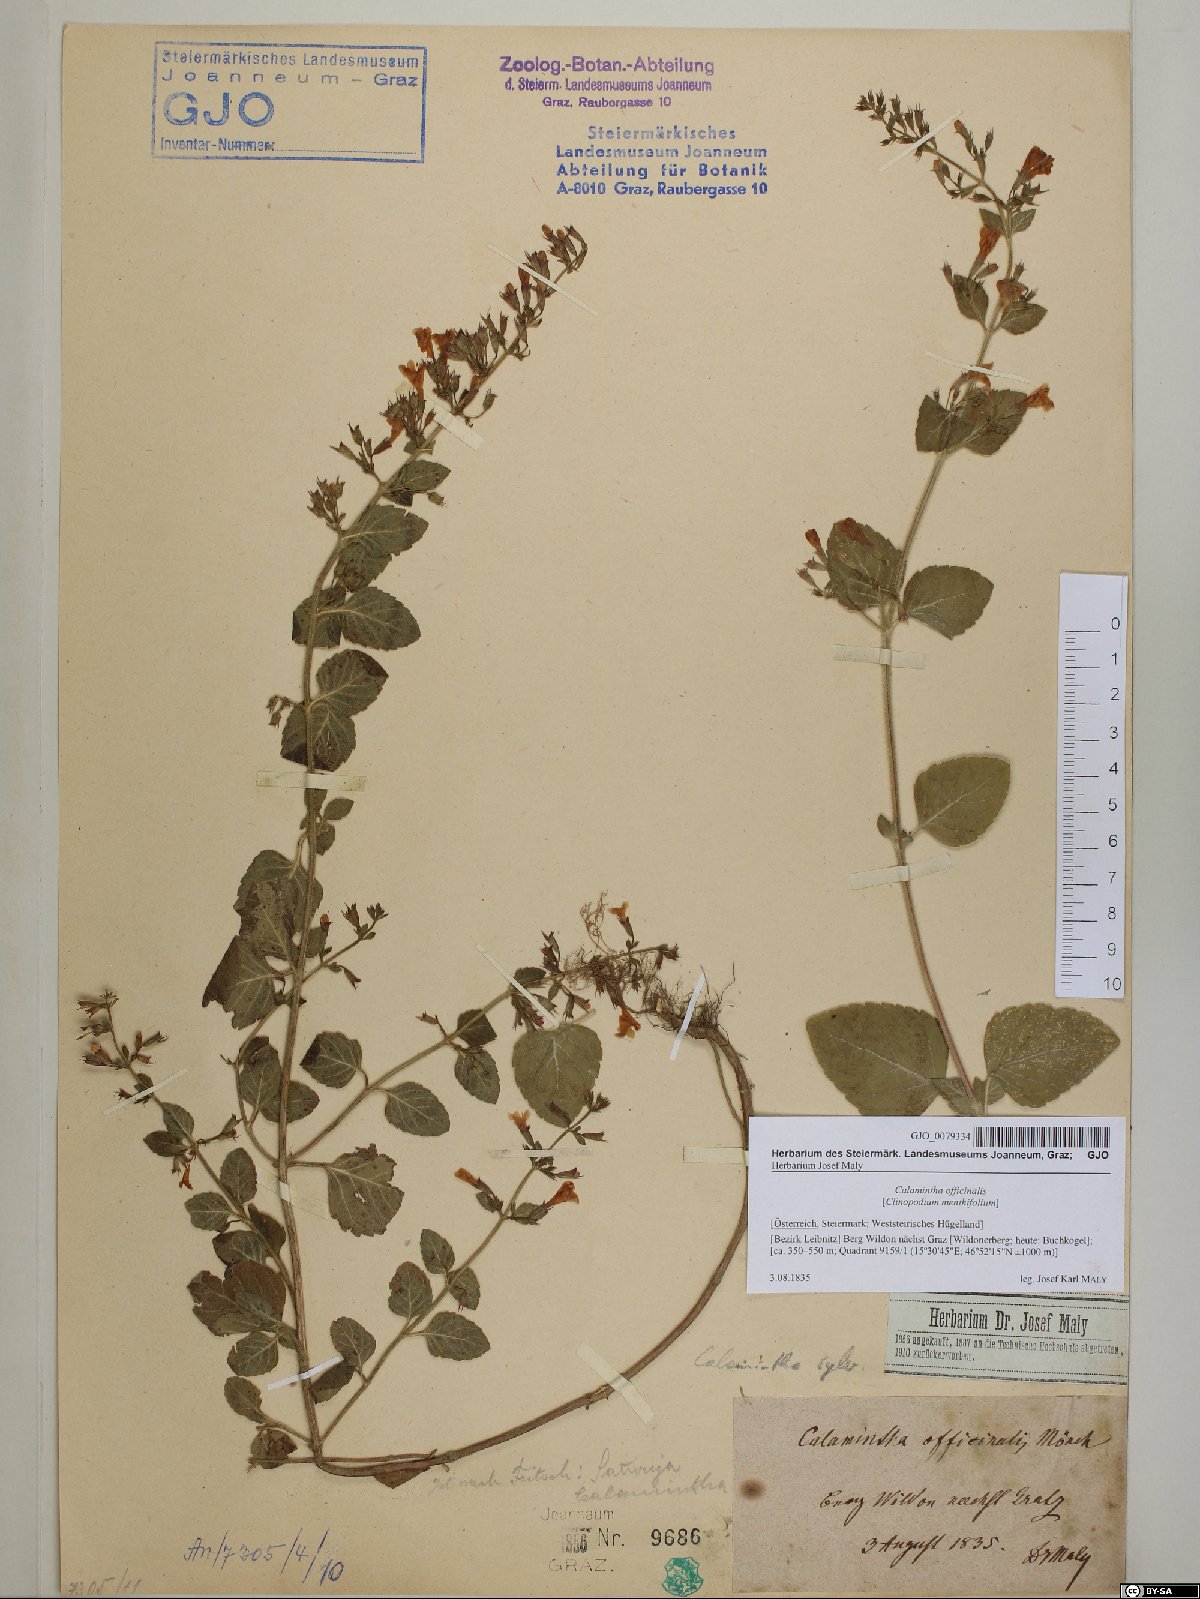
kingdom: Plantae
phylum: Tracheophyta
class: Magnoliopsida
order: Lamiales
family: Lamiaceae
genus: Clinopodium
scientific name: Clinopodium nepeta
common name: Lesser calamint
